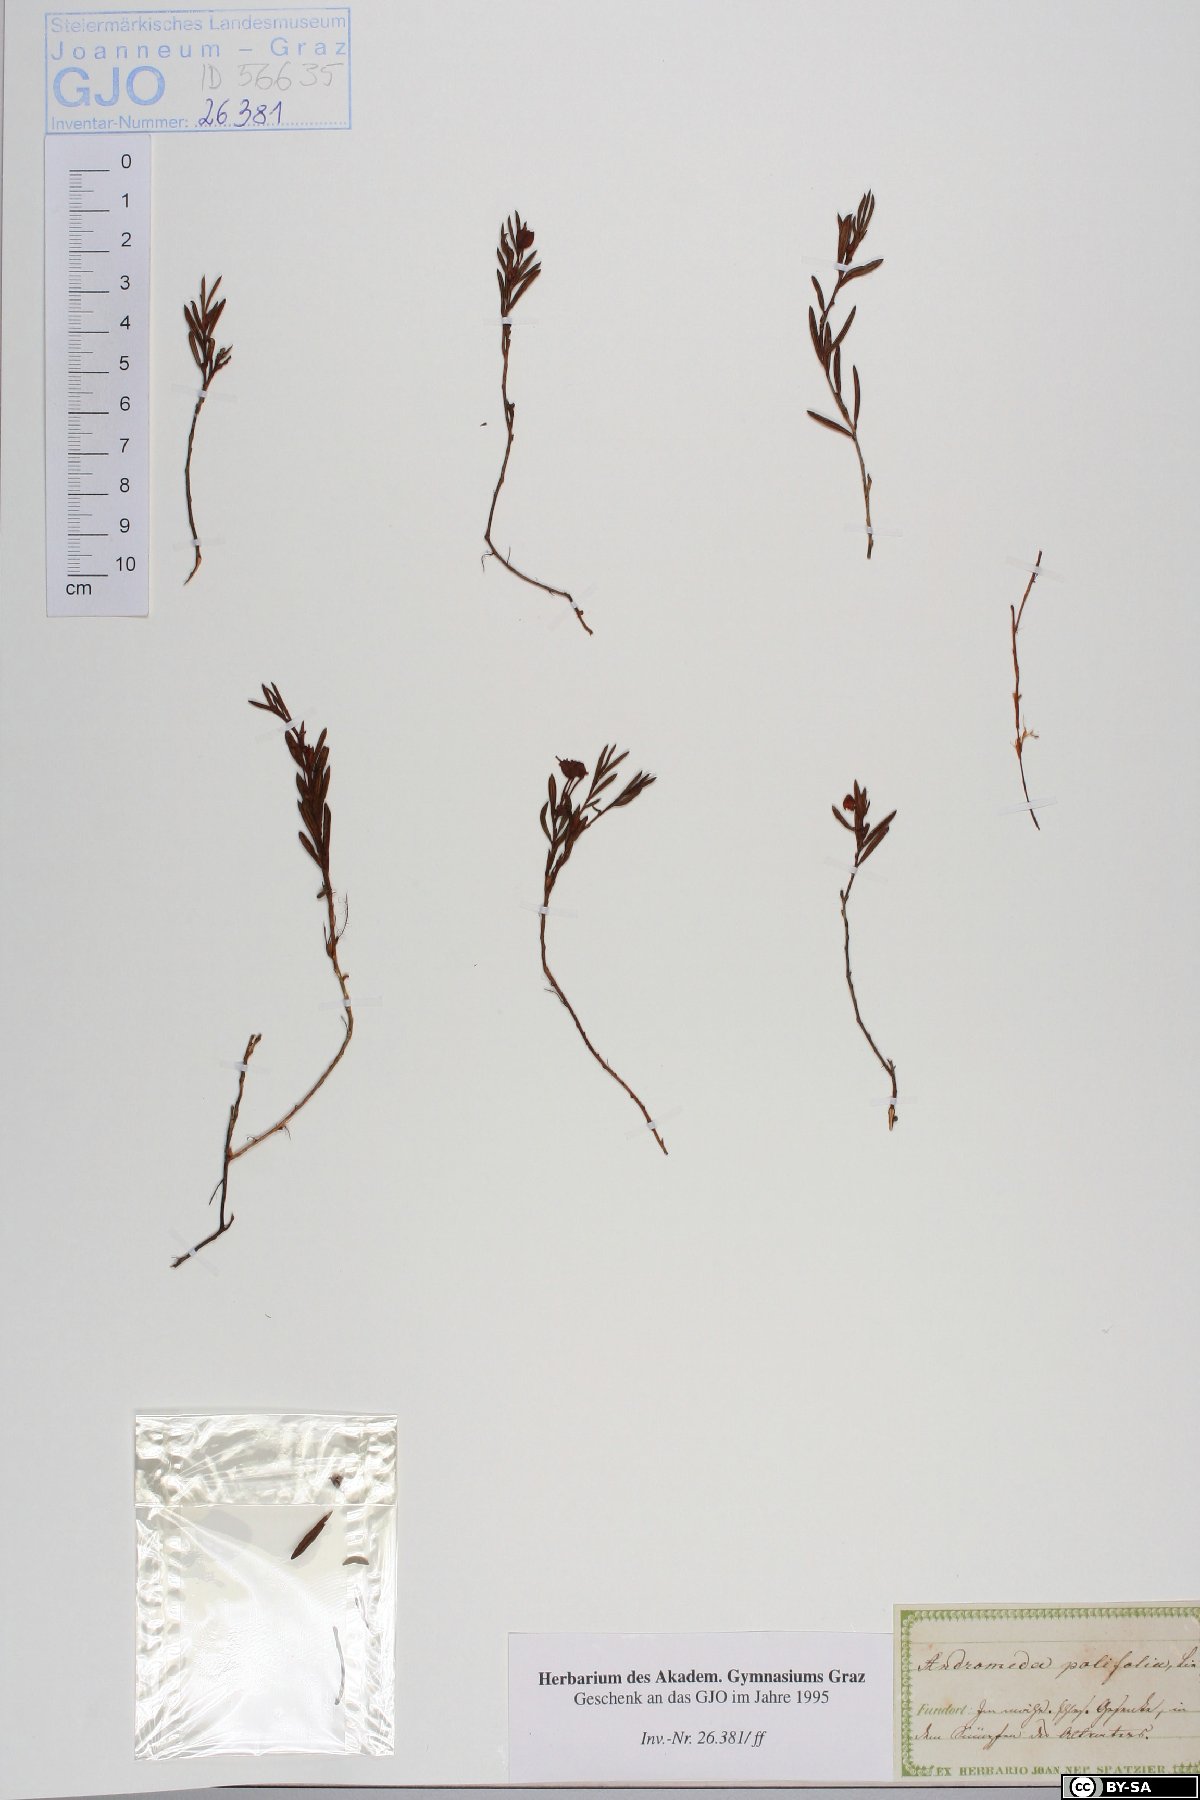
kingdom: Plantae
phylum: Tracheophyta
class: Magnoliopsida
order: Ericales
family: Ericaceae
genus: Andromeda
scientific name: Andromeda polifolia
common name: Bog-rosemary
